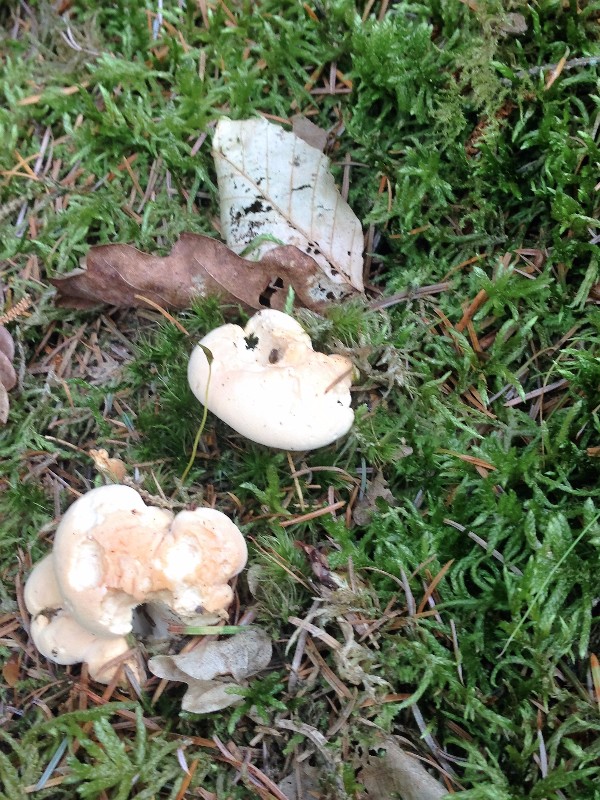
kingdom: Fungi
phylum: Basidiomycota
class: Agaricomycetes
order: Cantharellales
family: Hydnaceae
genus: Hydnum
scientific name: Hydnum repandum
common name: almindelig pigsvamp
